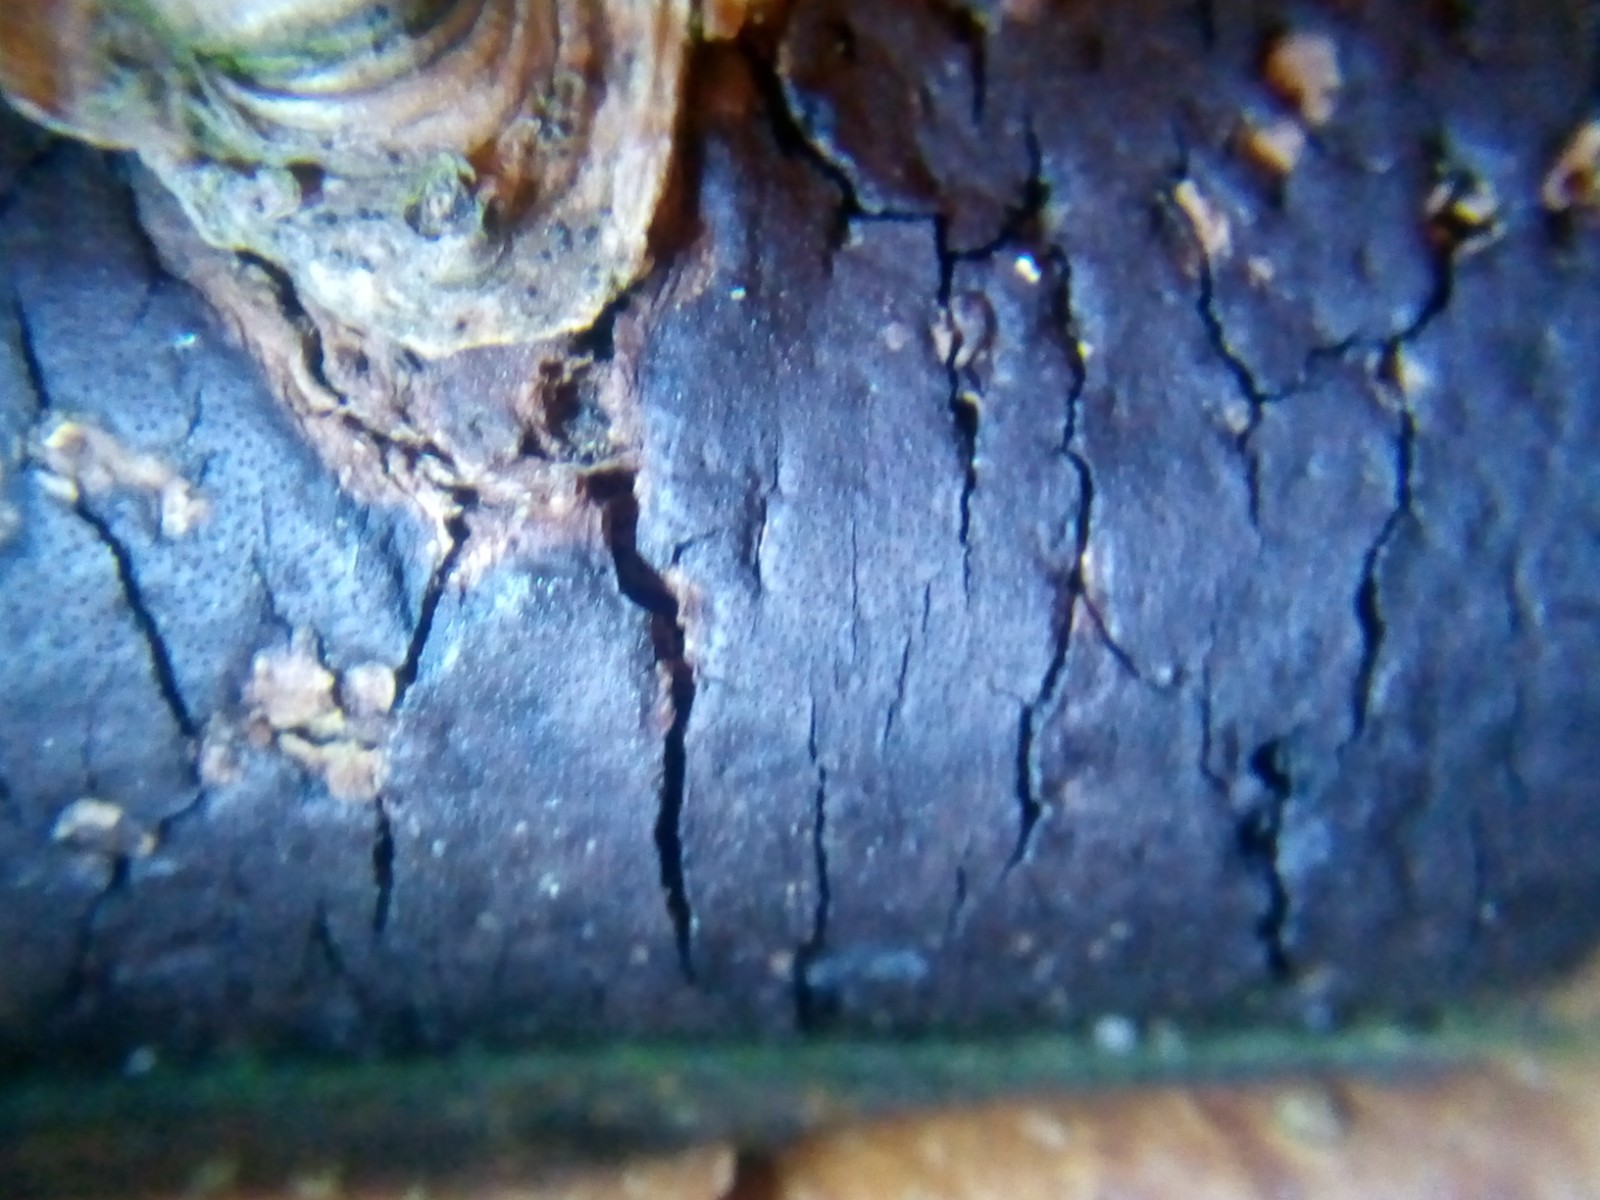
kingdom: Fungi
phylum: Ascomycota
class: Sordariomycetes
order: Xylariales
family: Diatrypaceae
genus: Diatrype
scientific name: Diatrype decorticata
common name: barksprænger-kulskorpe
